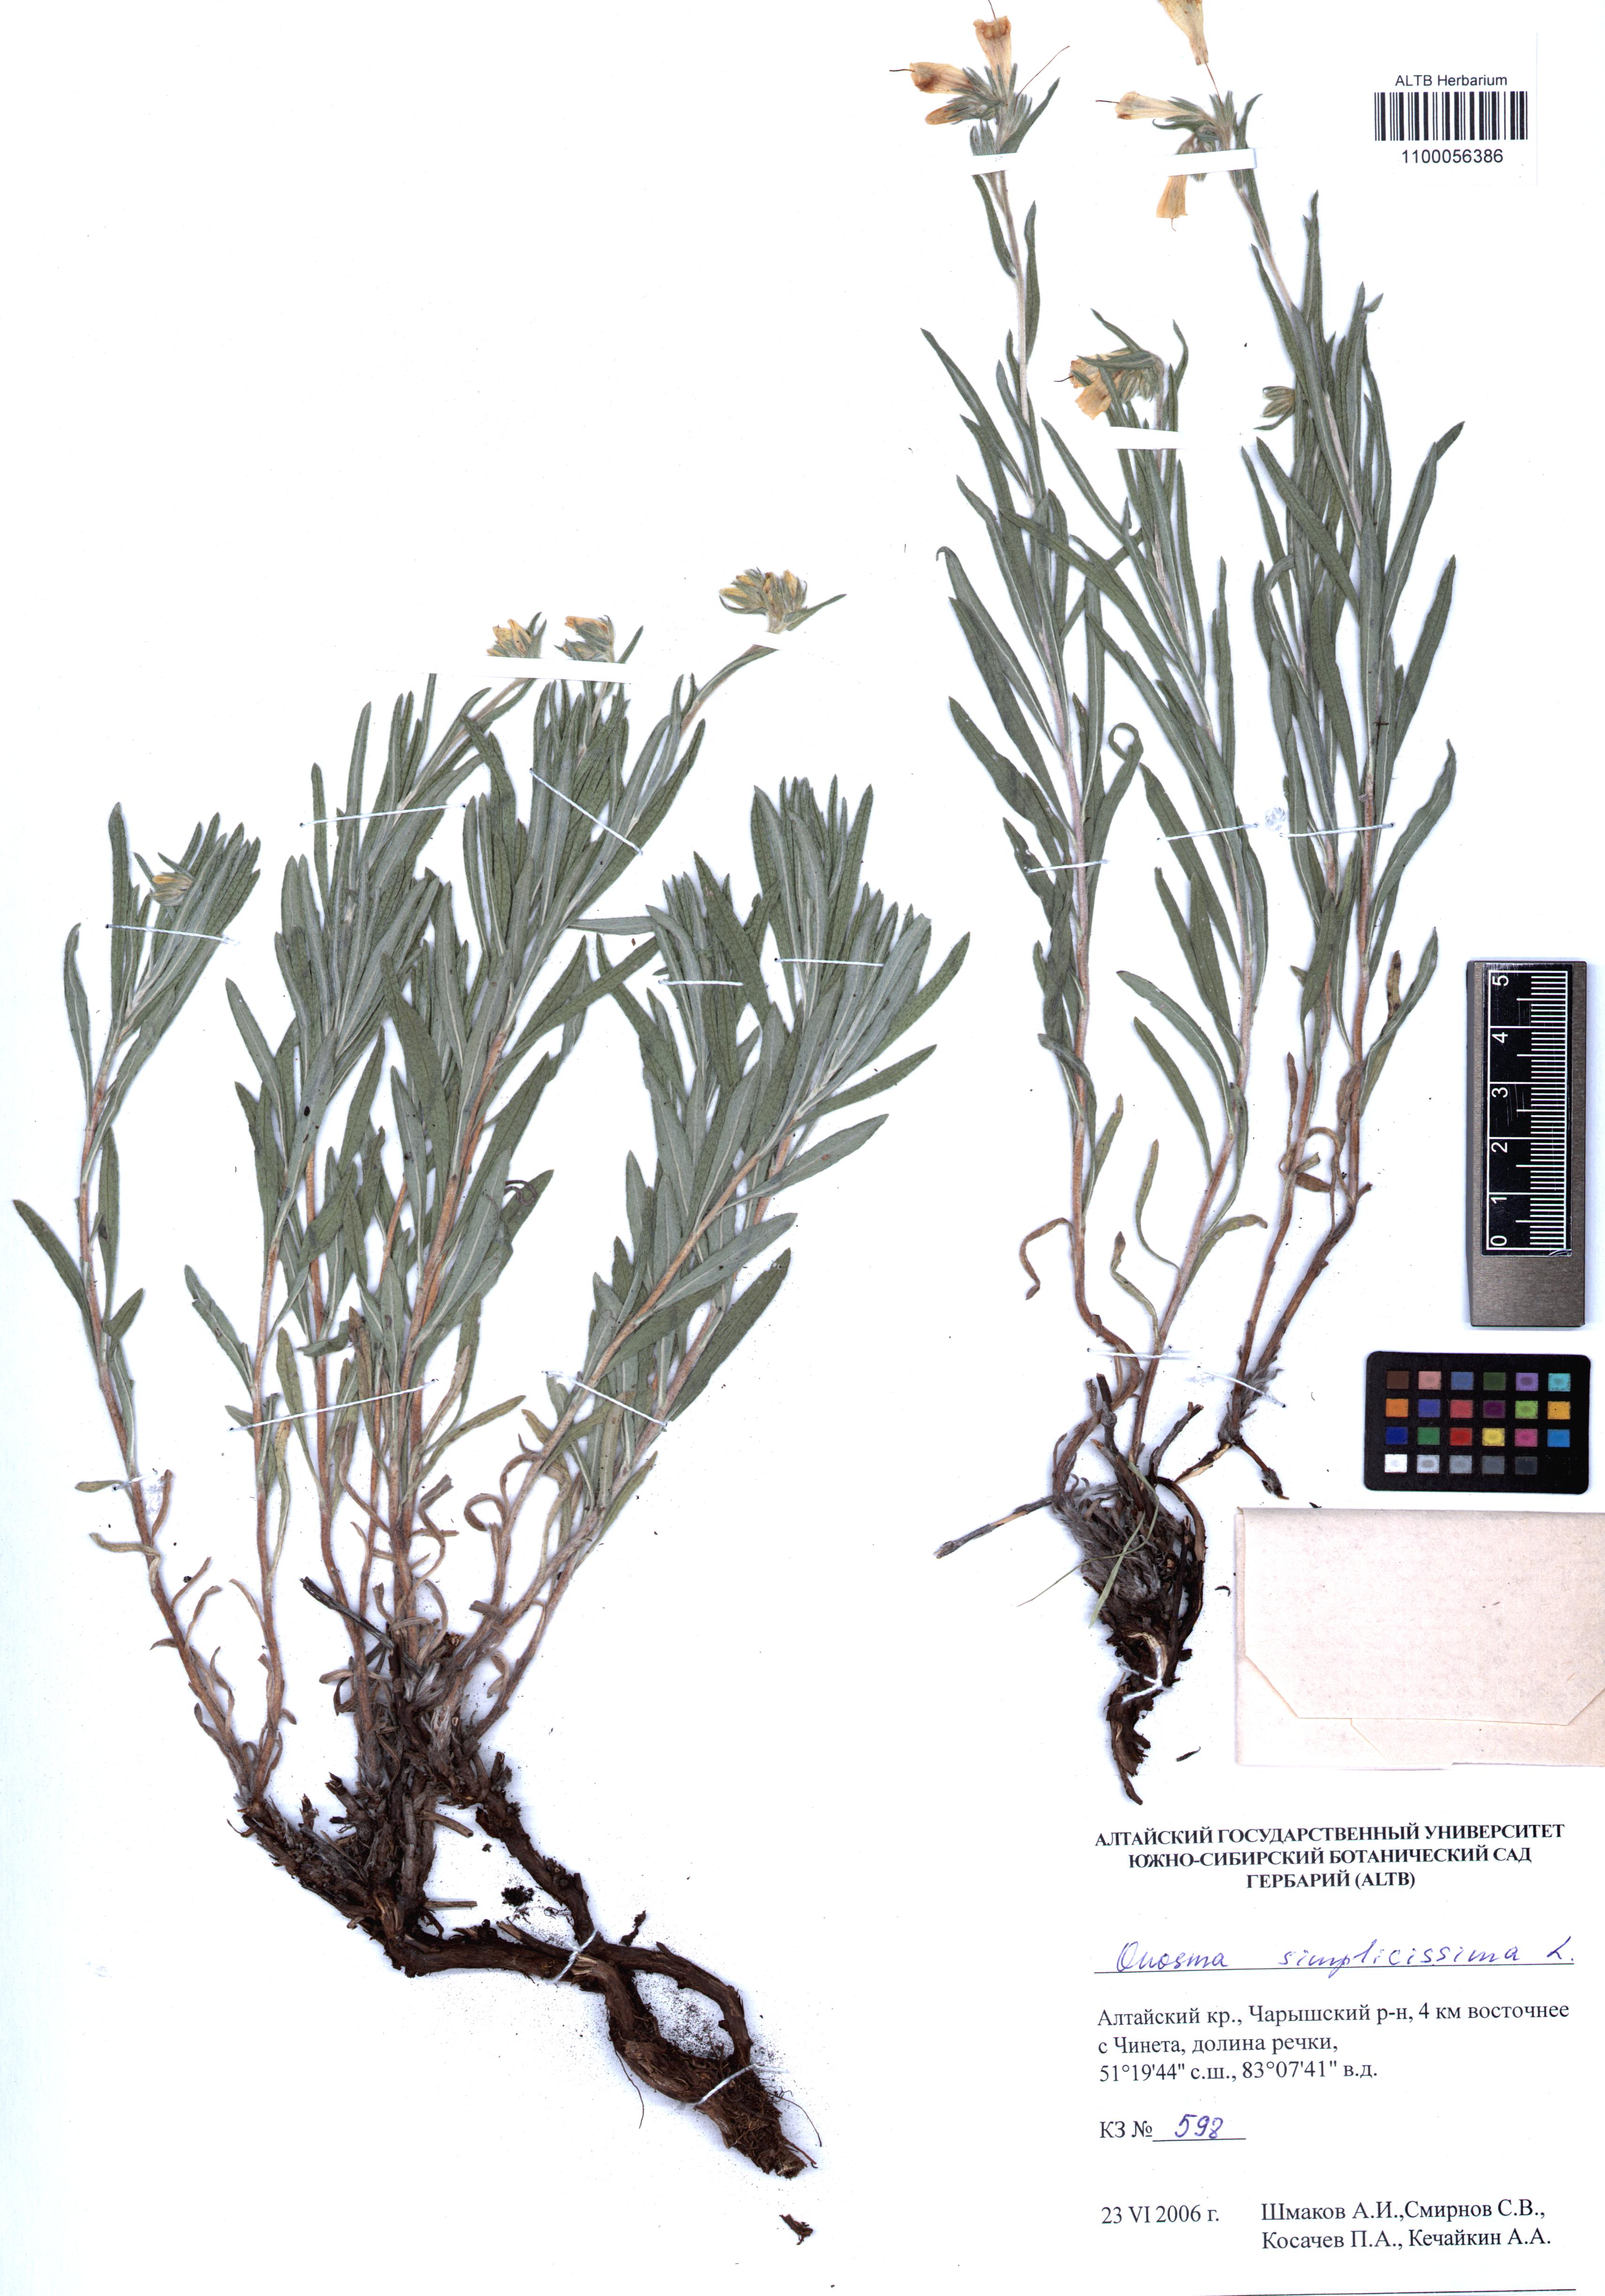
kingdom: Plantae
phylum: Tracheophyta
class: Magnoliopsida
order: Boraginales
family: Boraginaceae
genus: Onosma
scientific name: Onosma simplicissima
